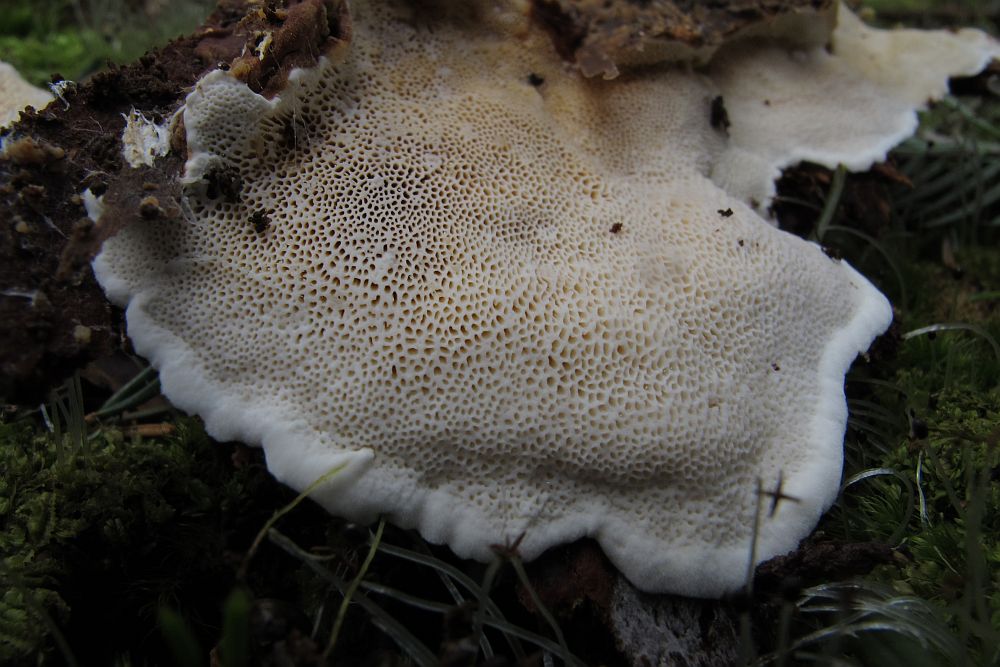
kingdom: Fungi
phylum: Basidiomycota
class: Agaricomycetes
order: Russulales
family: Bondarzewiaceae
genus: Heterobasidion
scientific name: Heterobasidion annosum
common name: almindelig rodfordærver
